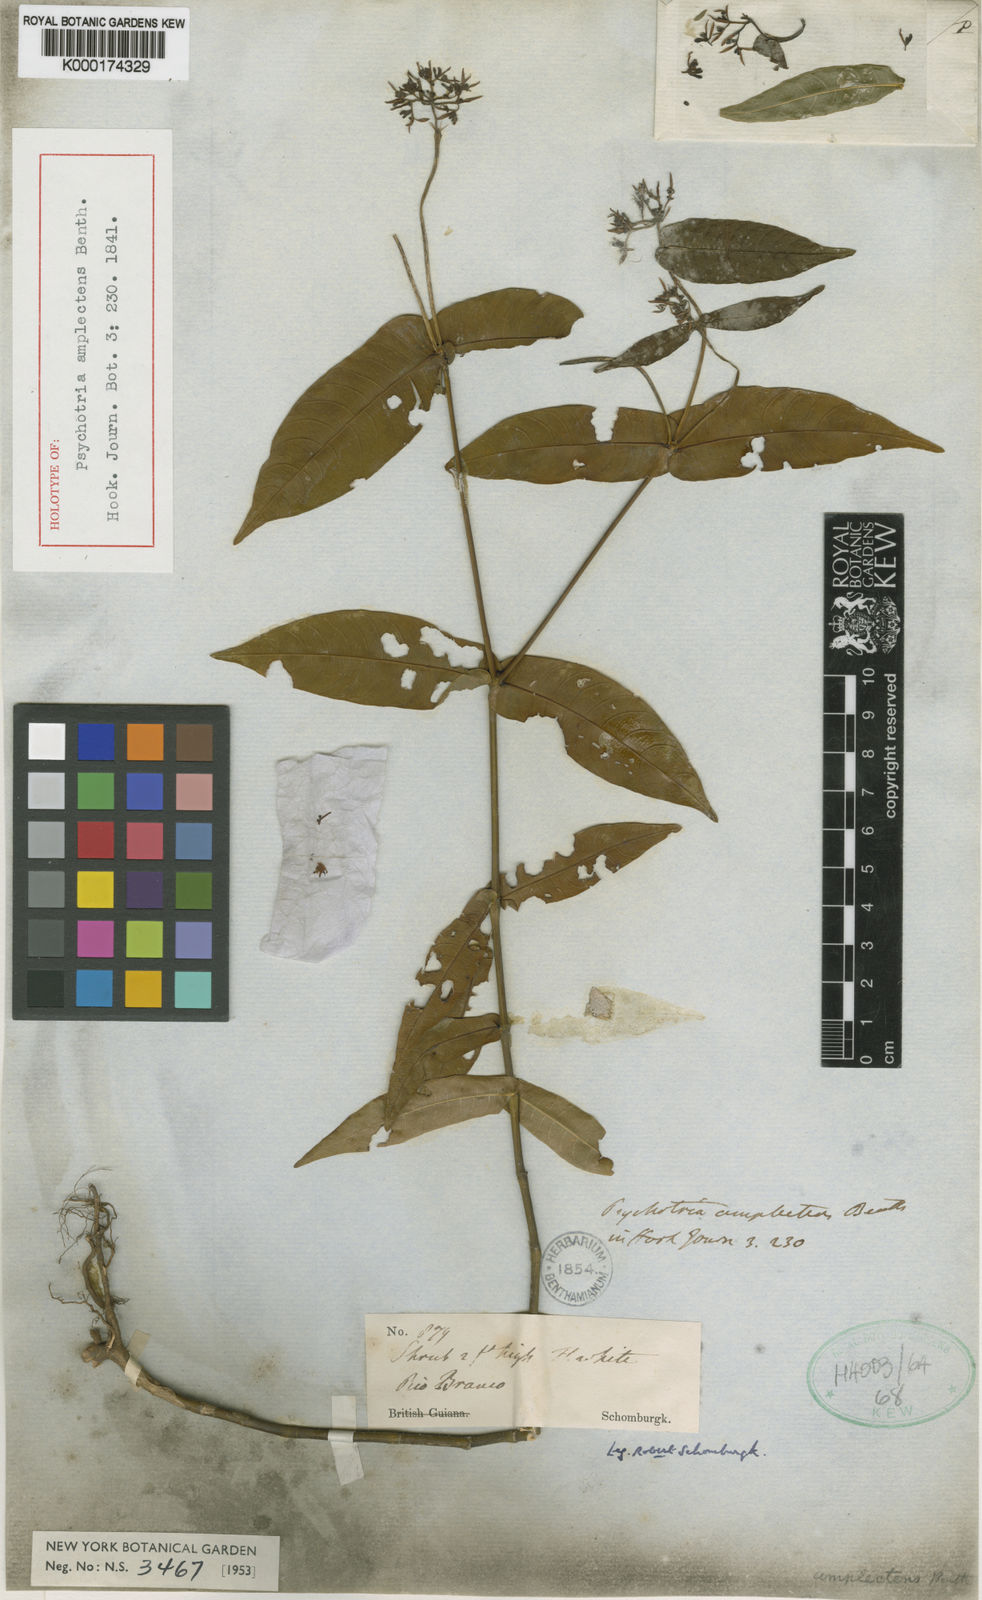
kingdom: Plantae
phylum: Tracheophyta
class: Magnoliopsida
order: Gentianales
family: Rubiaceae
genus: Psychotria
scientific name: Psychotria
